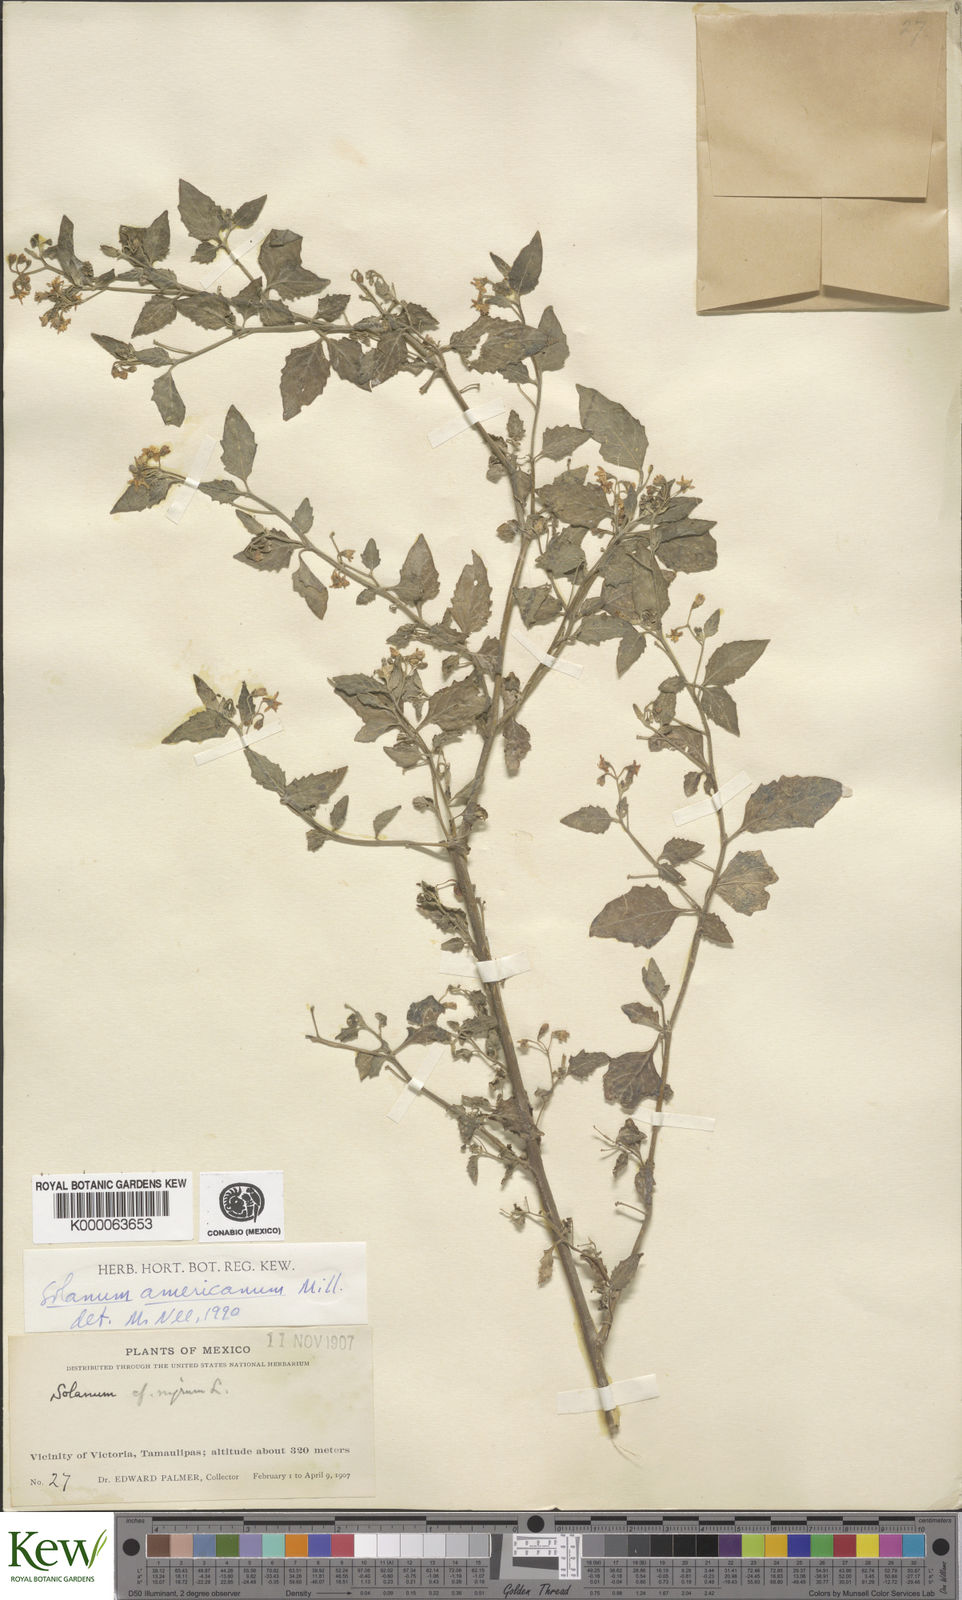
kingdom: Plantae
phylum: Tracheophyta
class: Magnoliopsida
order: Solanales
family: Solanaceae
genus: Solanum
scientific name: Solanum americanum
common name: American black nightshade
